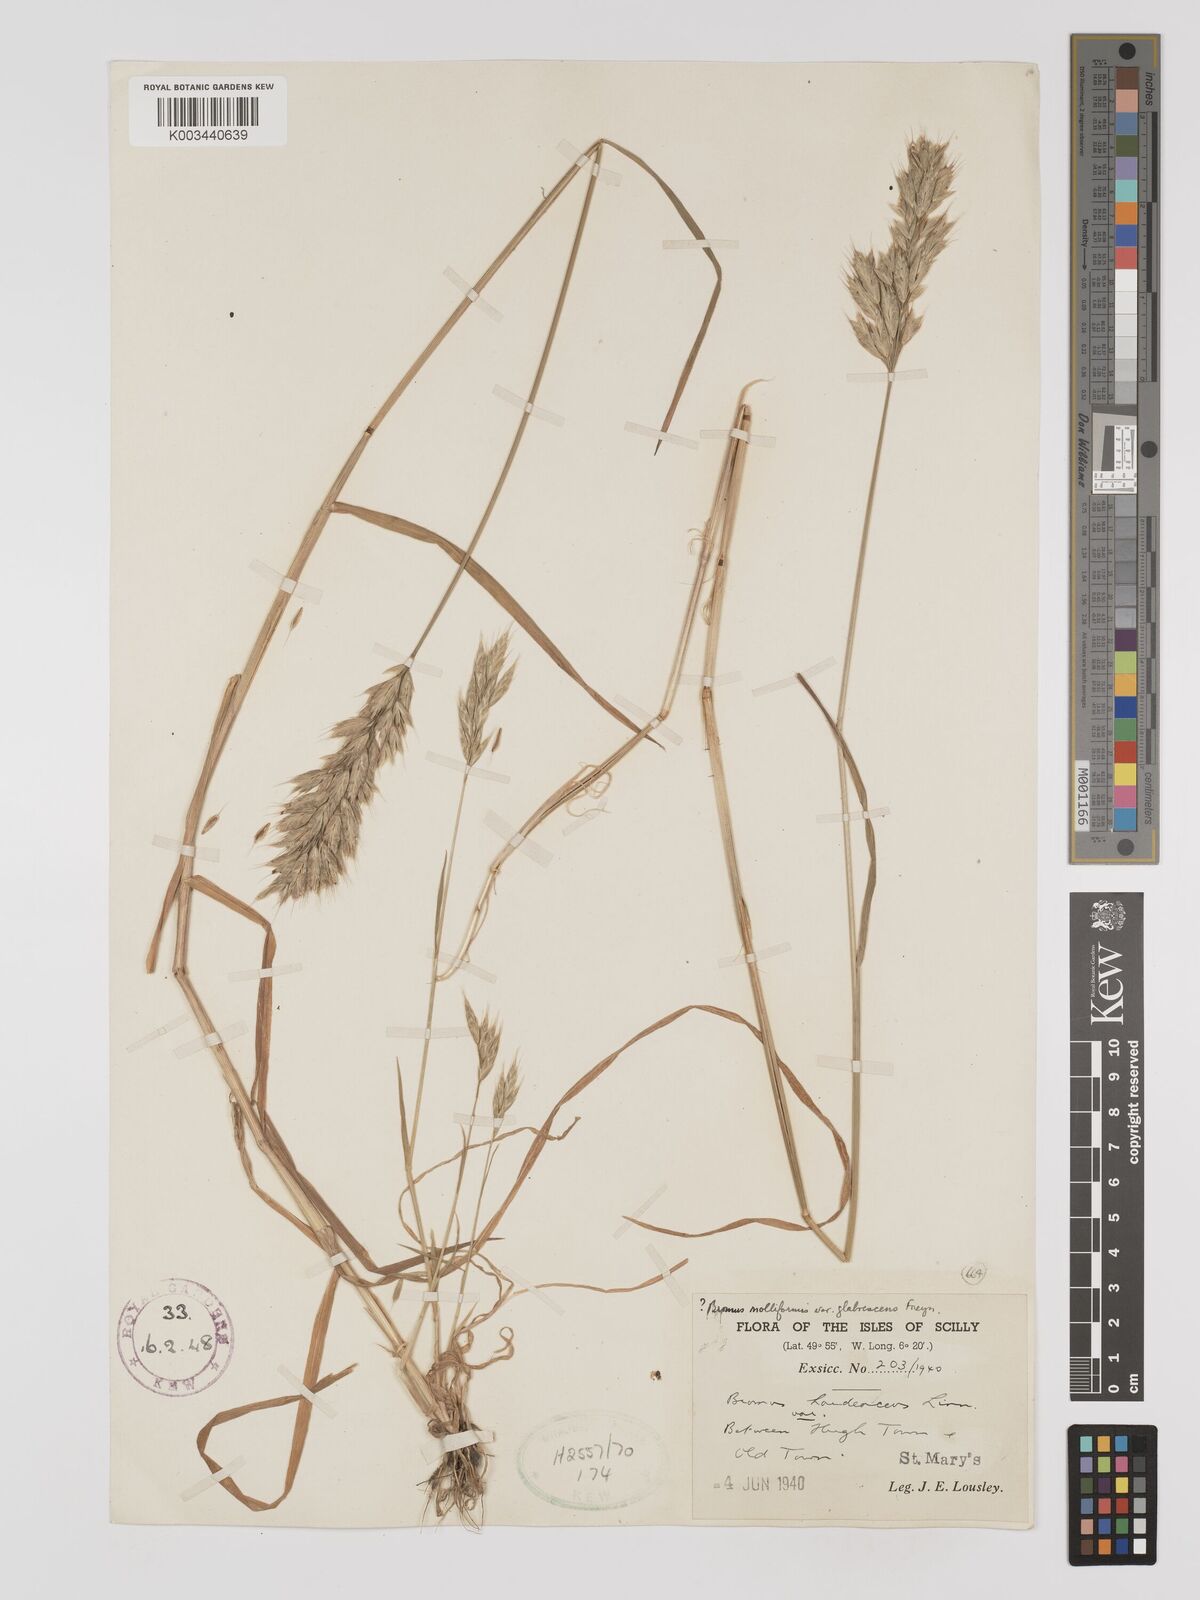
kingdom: Plantae
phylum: Tracheophyta
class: Liliopsida
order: Poales
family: Poaceae
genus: Bromus
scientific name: Bromus hordeaceus
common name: Soft brome
